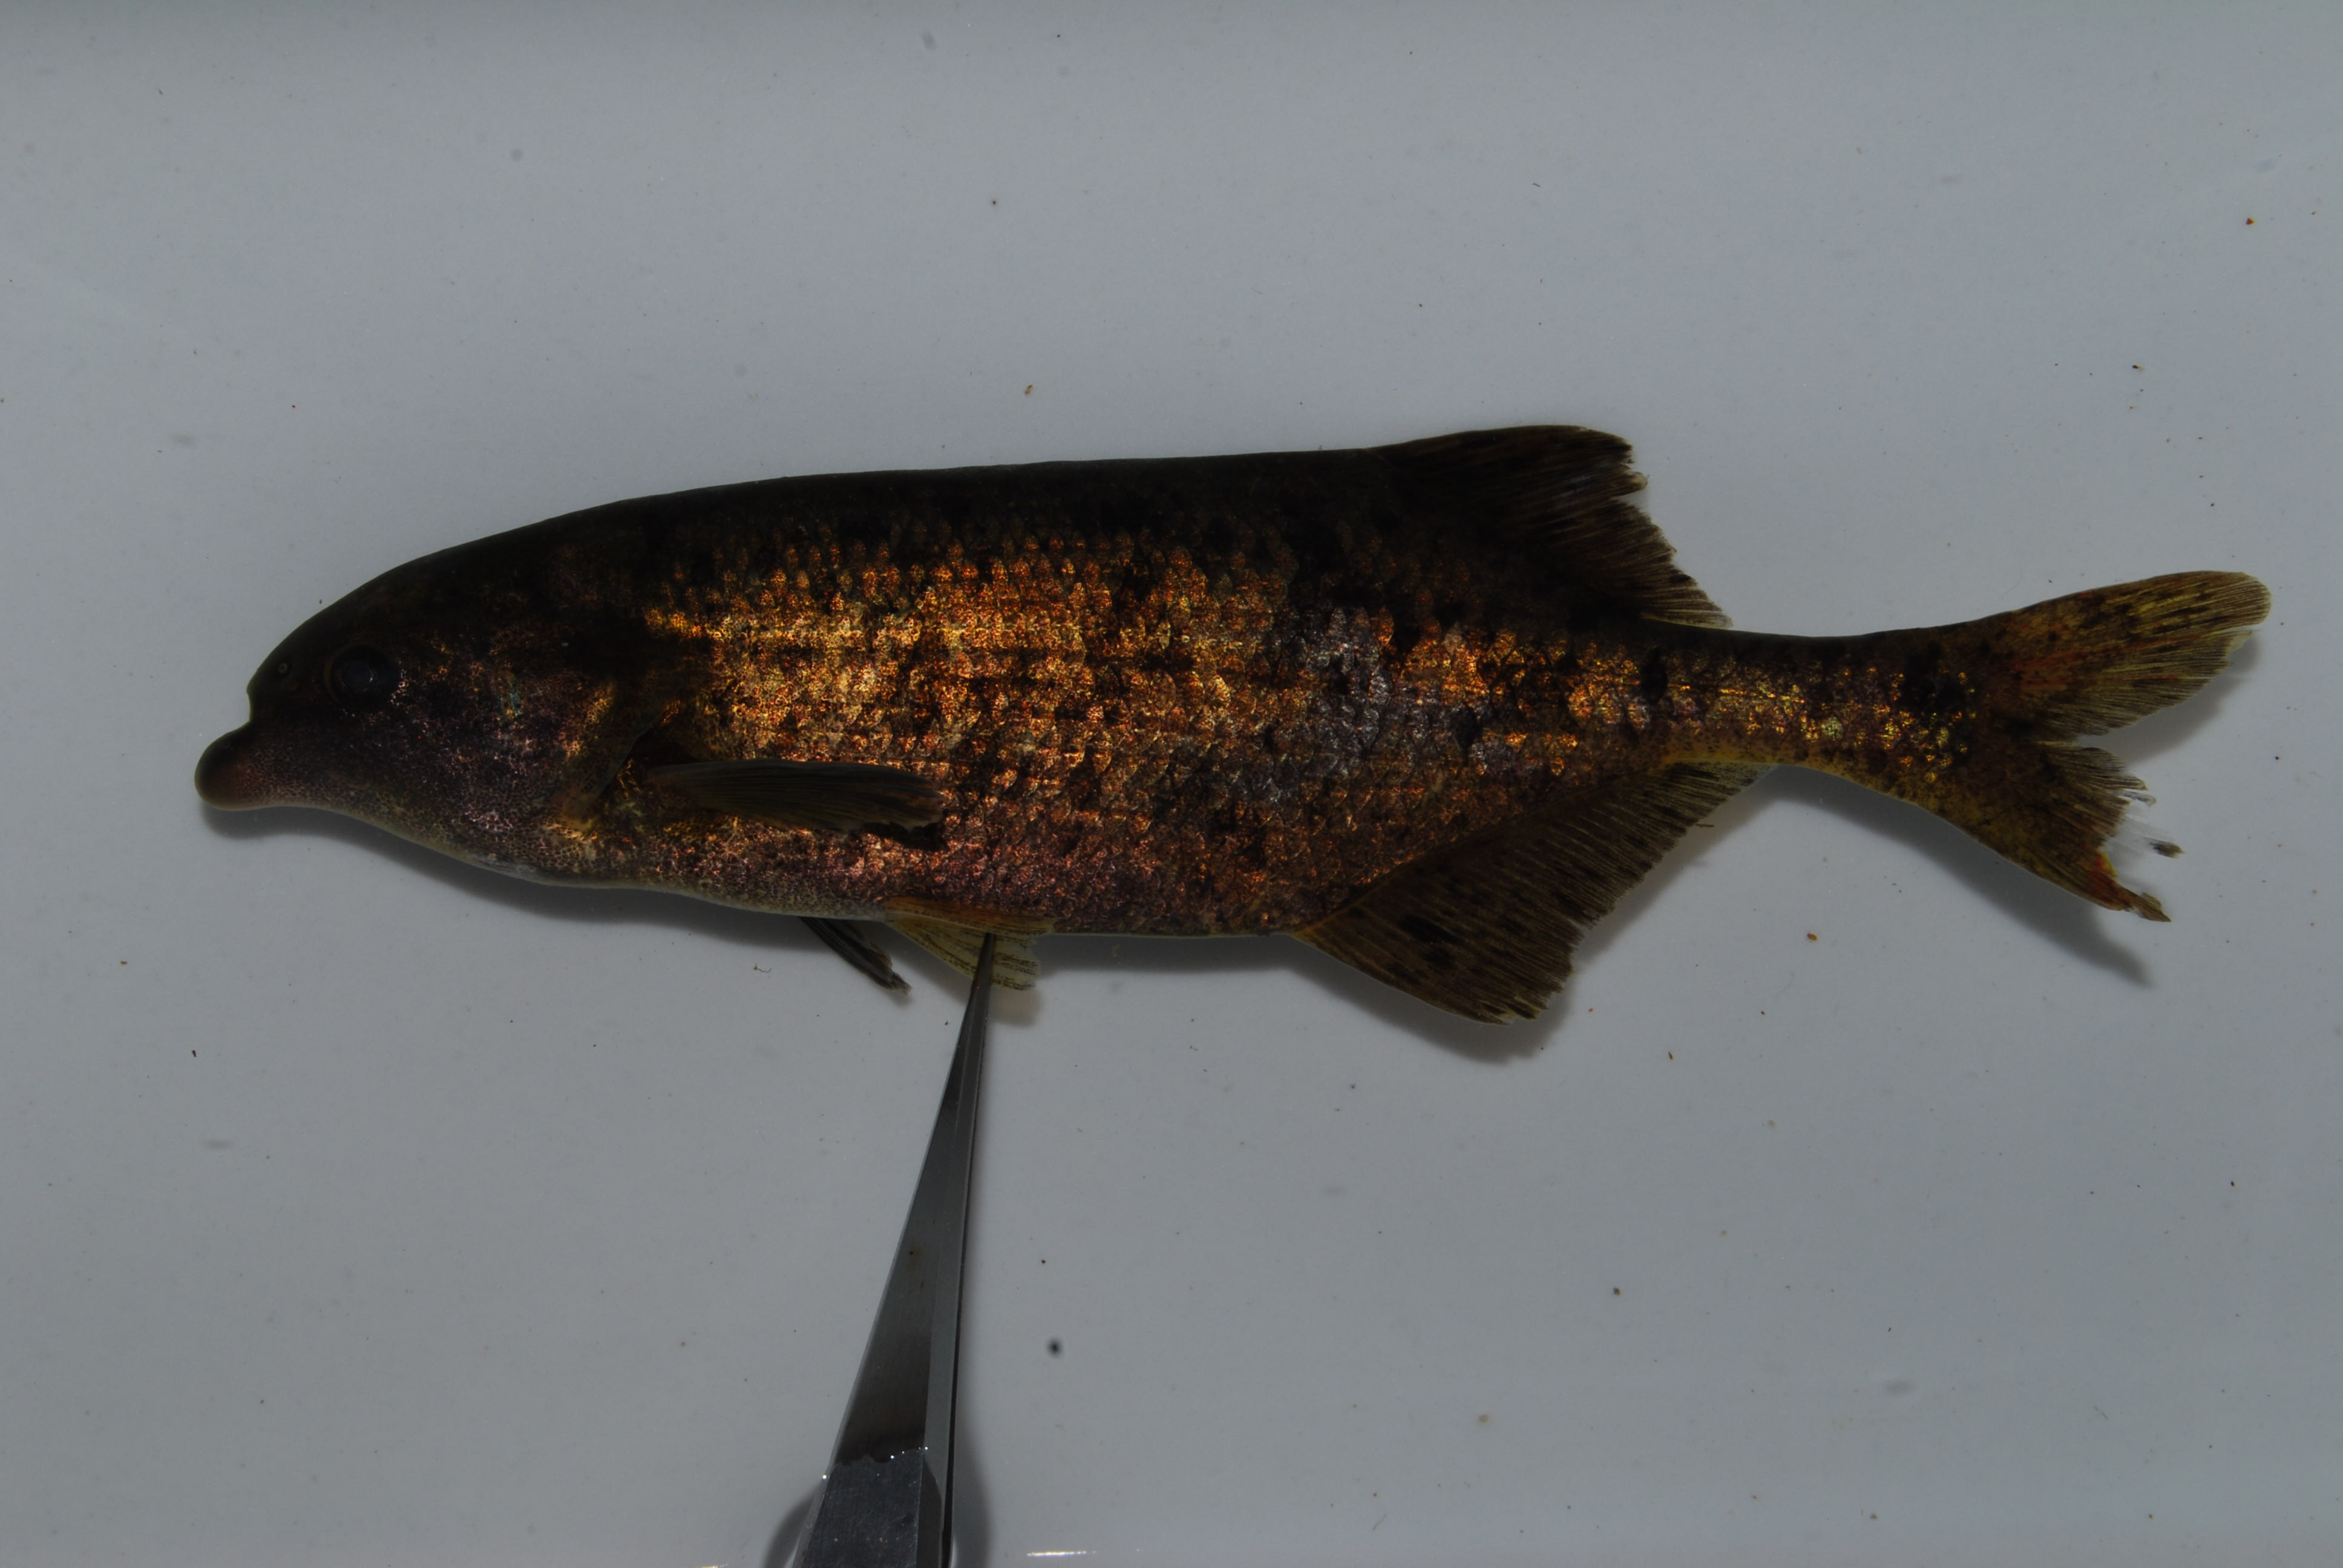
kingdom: Animalia
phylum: Chordata
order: Osteoglossiformes
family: Mormyridae
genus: Marcusenius
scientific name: Marcusenius altisambesi
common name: Bulldog
